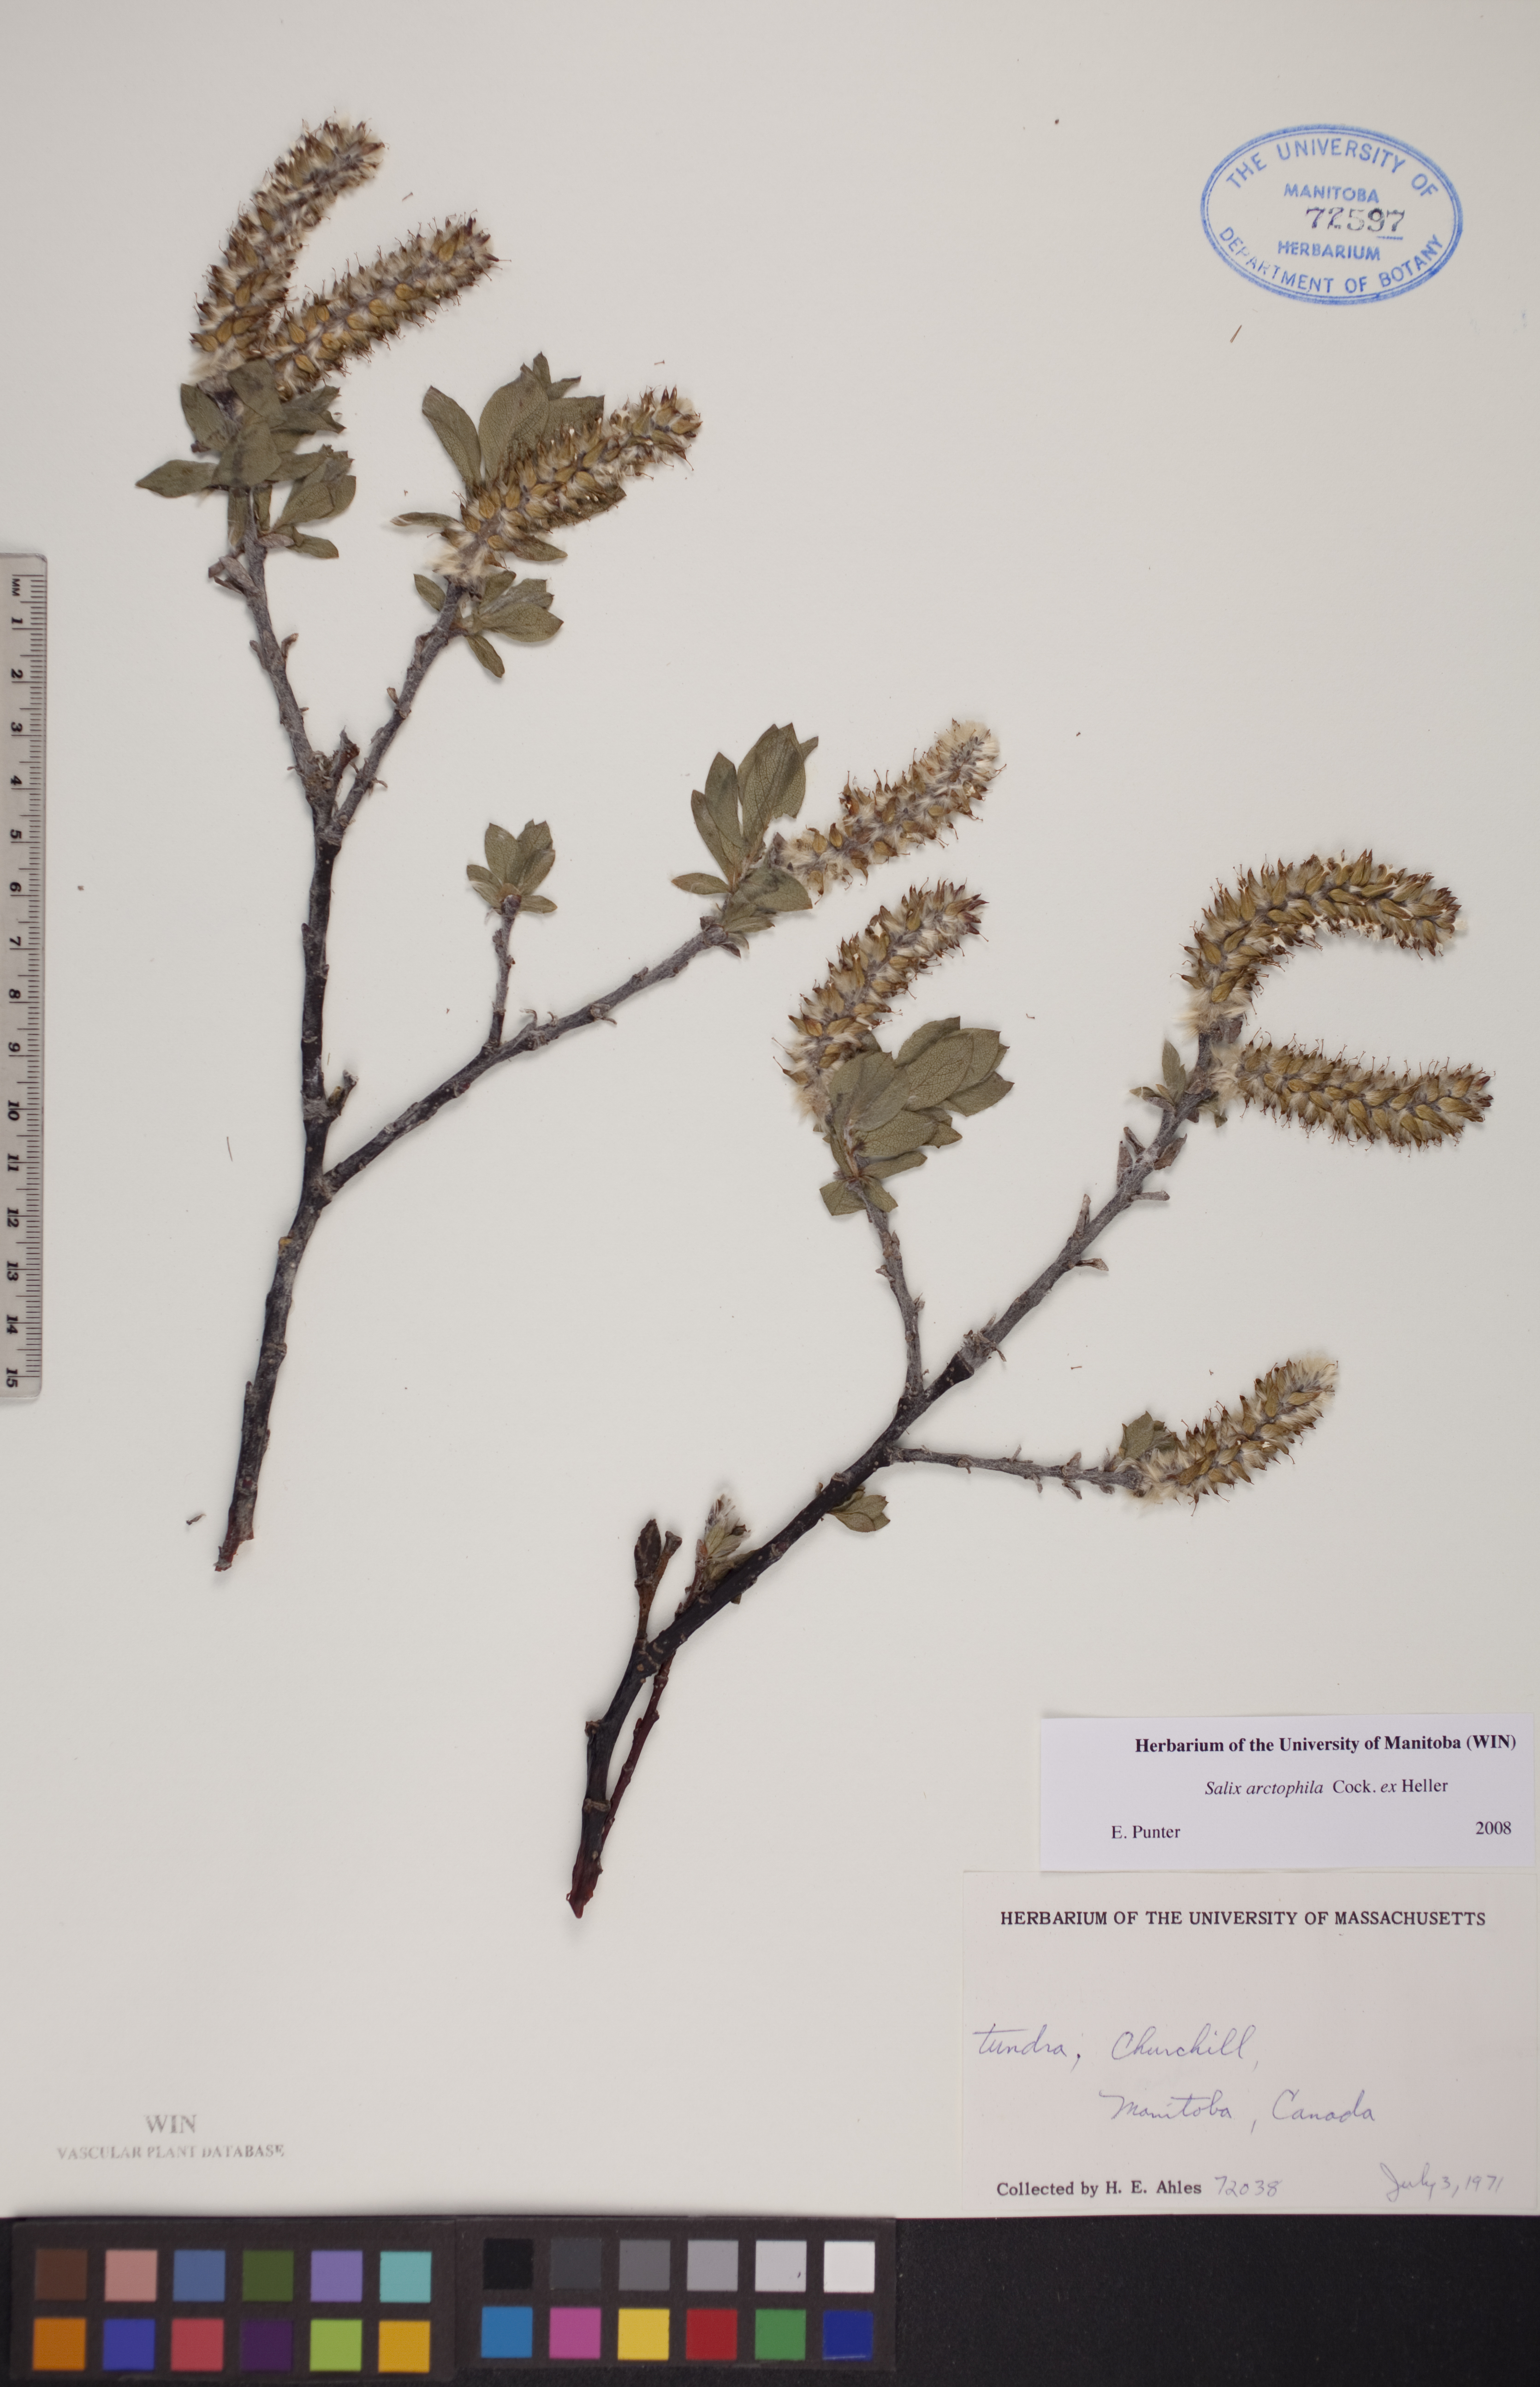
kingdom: Plantae
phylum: Tracheophyta
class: Magnoliopsida
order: Malpighiales
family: Salicaceae
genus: Salix
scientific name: Salix arctophila
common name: Greenland willow
